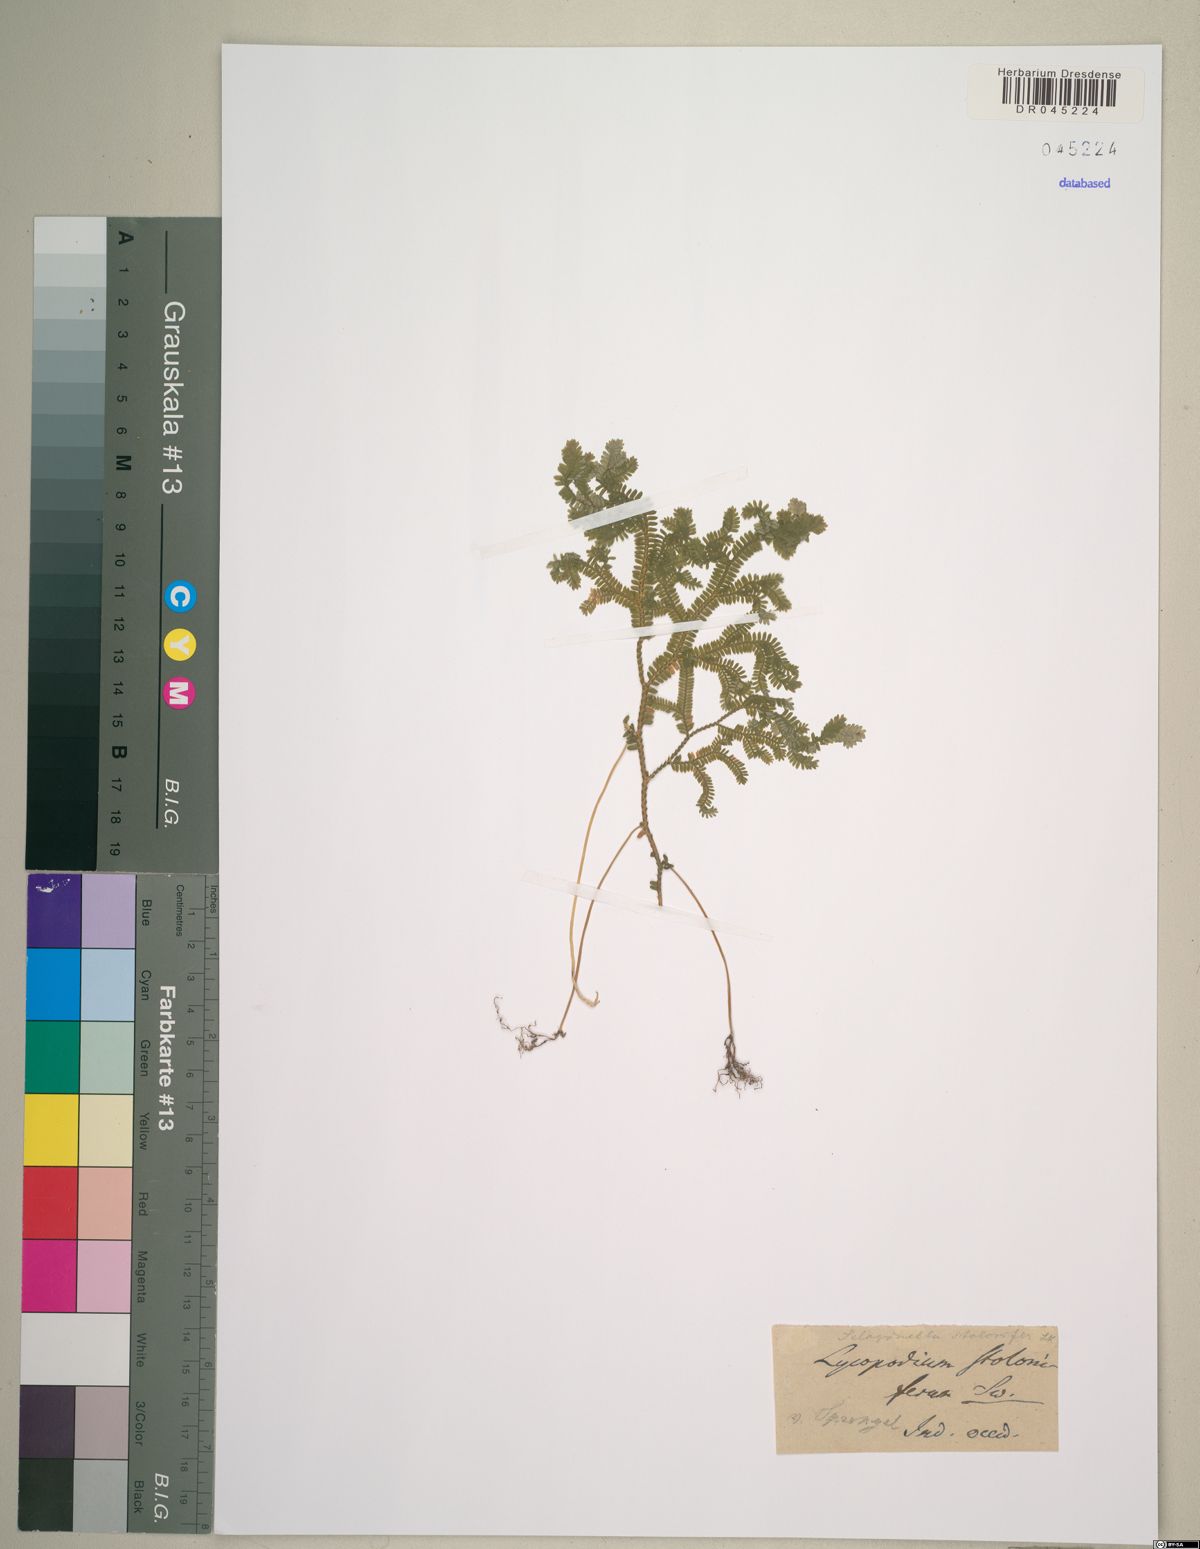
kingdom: Plantae
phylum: Tracheophyta
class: Lycopodiopsida
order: Selaginellales
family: Selaginellaceae
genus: Selaginella
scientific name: Selaginella plumosa
